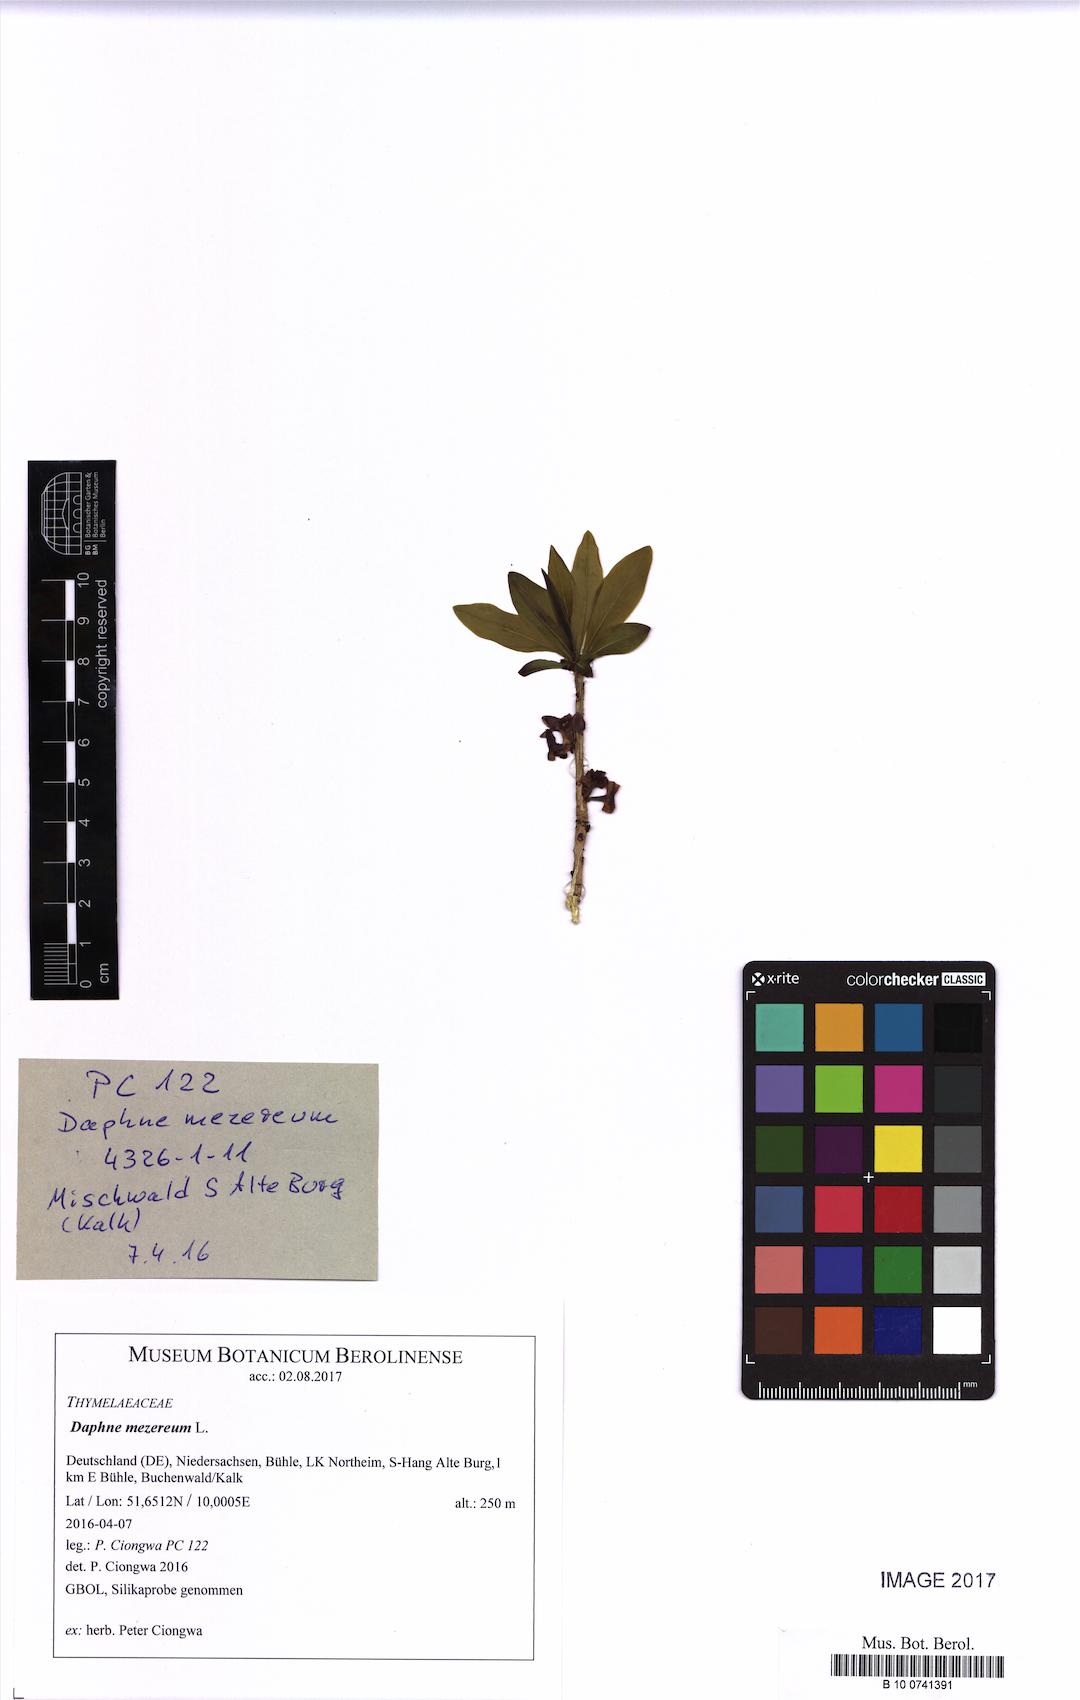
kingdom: Plantae
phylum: Tracheophyta
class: Magnoliopsida
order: Malvales
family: Thymelaeaceae
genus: Daphne
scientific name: Daphne mezereum
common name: Mezereon
